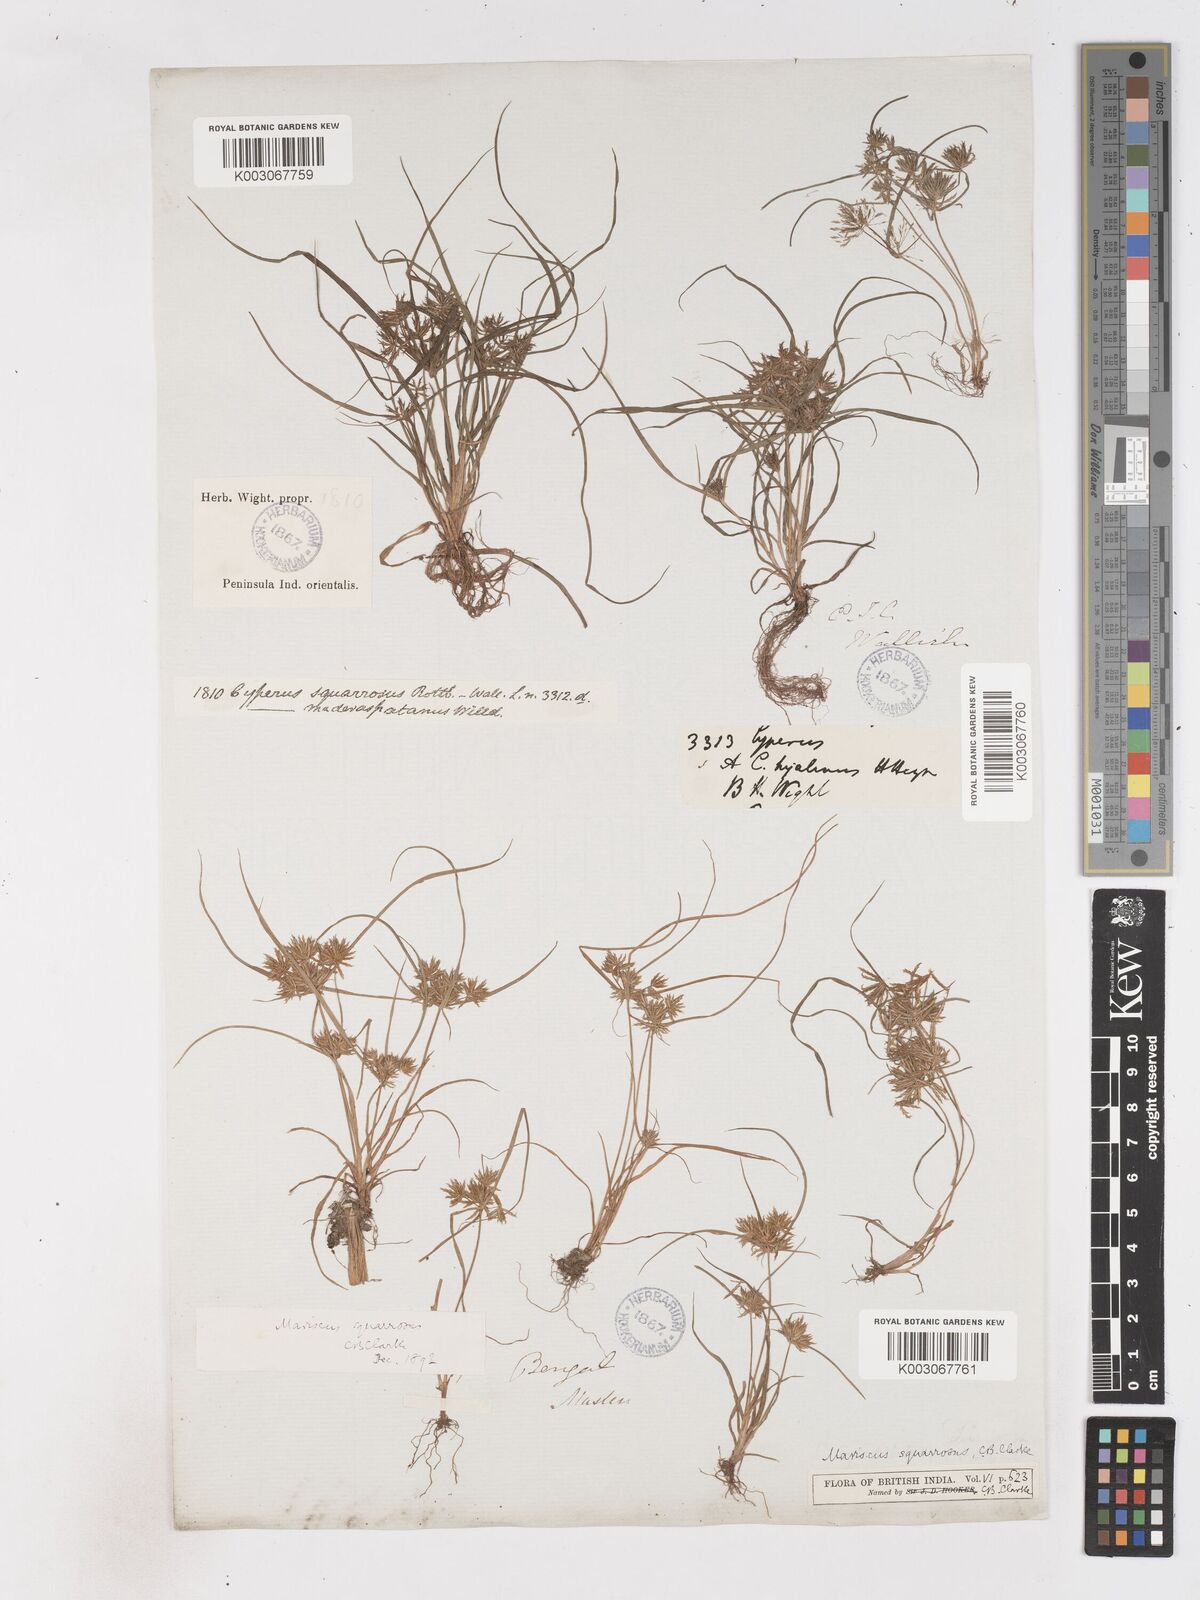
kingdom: Plantae
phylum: Tracheophyta
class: Liliopsida
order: Poales
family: Cyperaceae
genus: Cyperus
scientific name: Cyperus maderaspatanus
